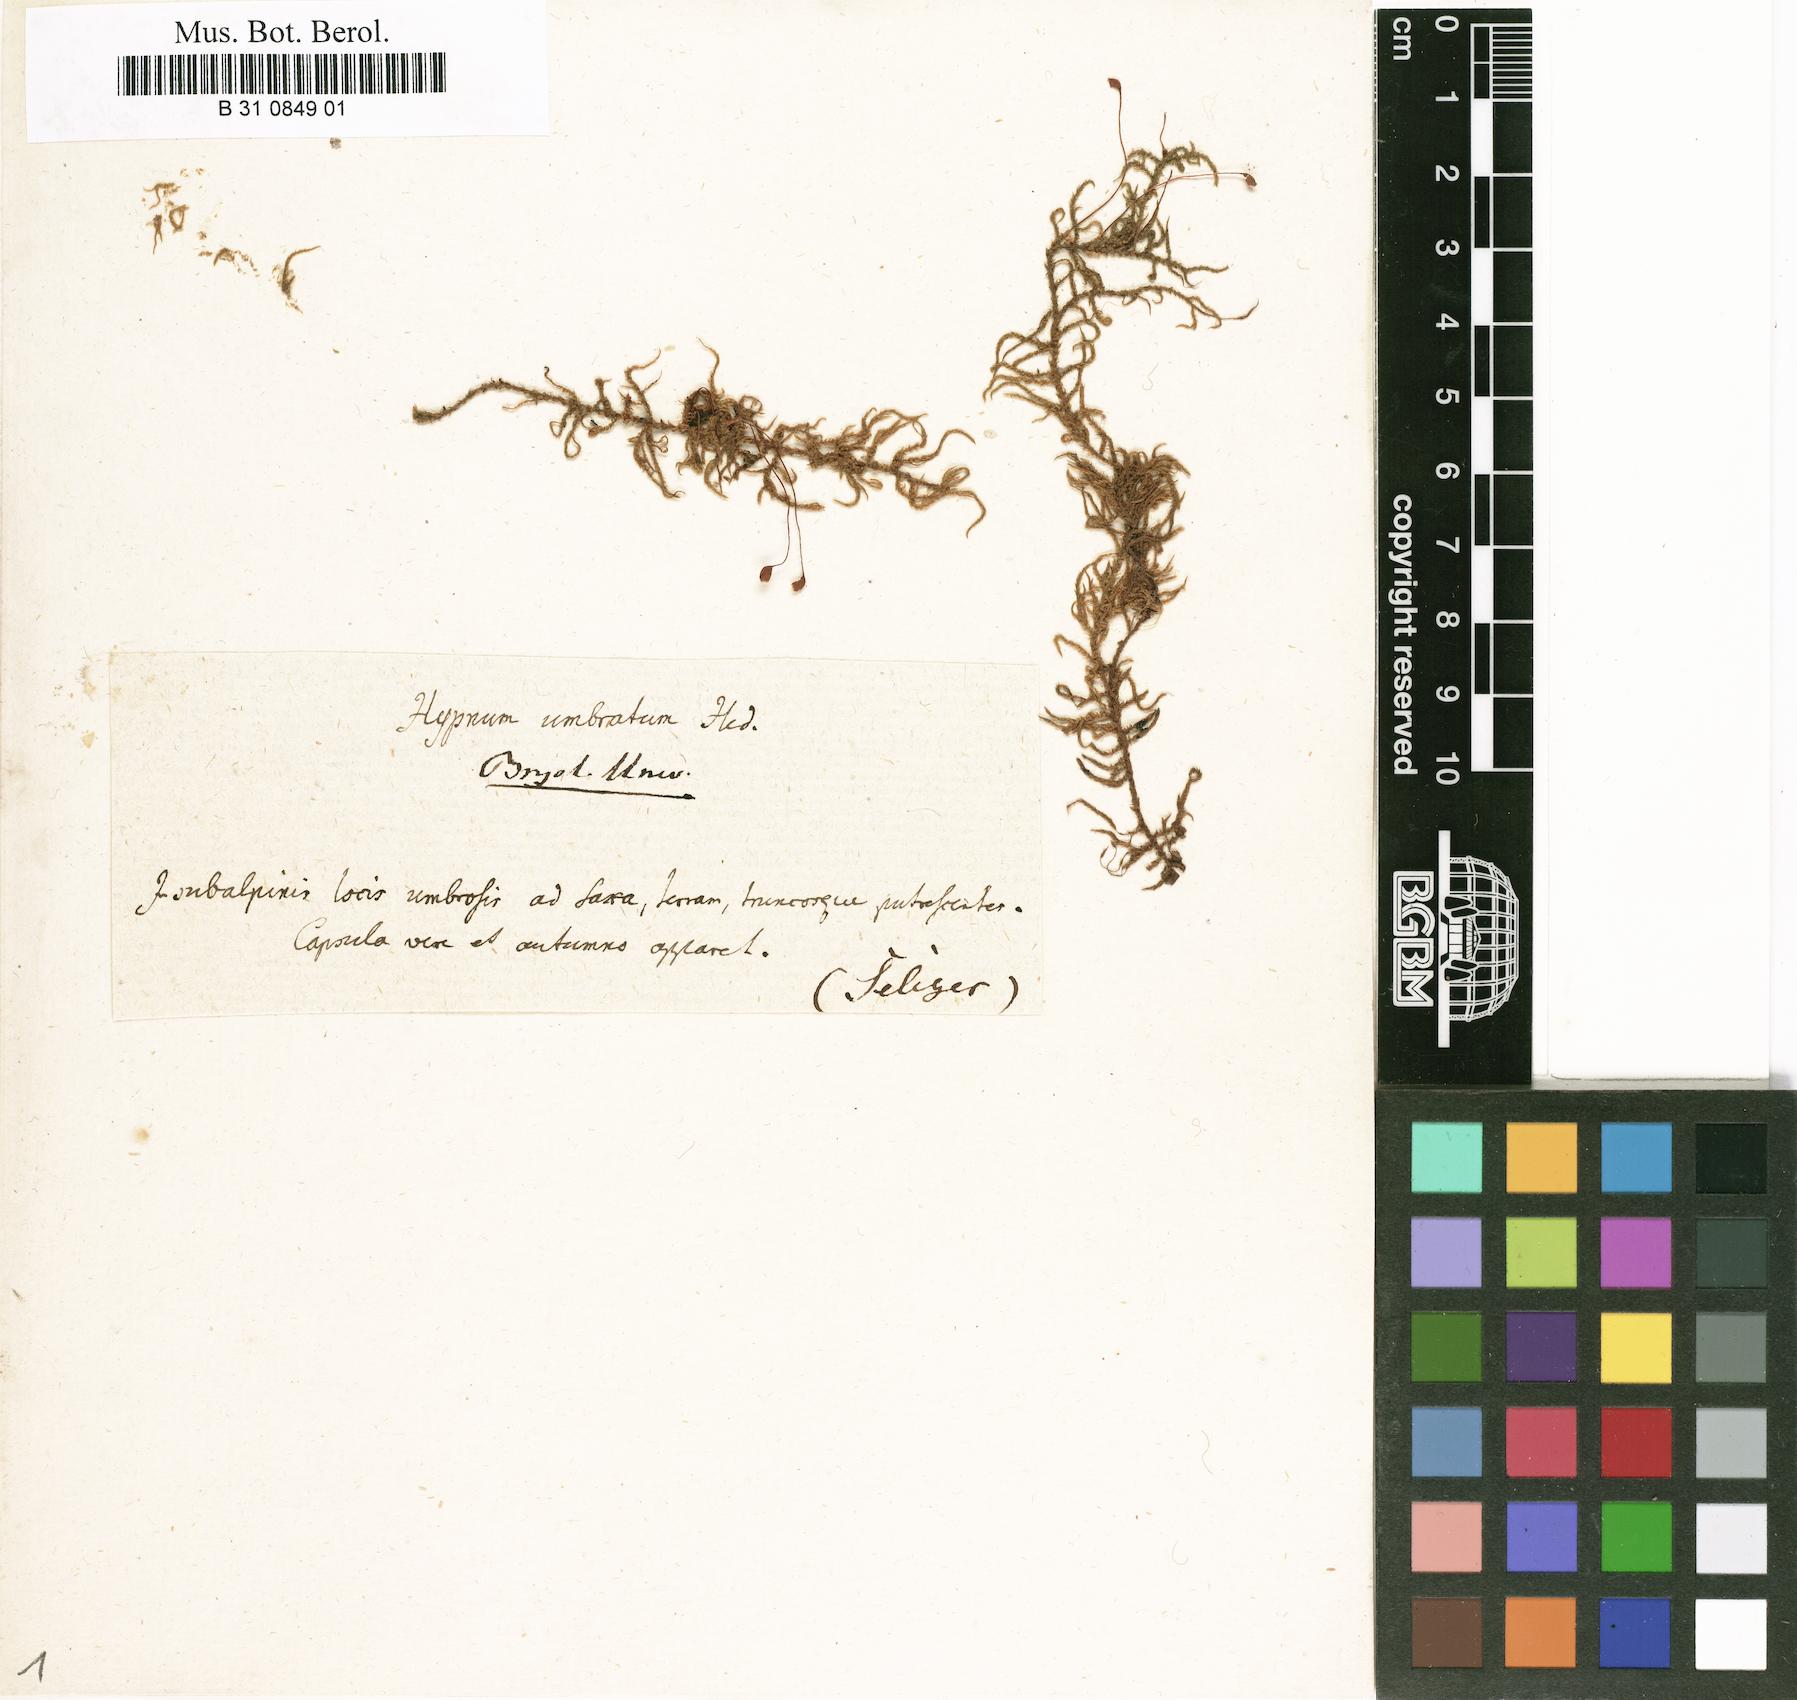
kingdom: Plantae
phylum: Bryophyta
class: Bryopsida
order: Hypnales
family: Hylocomiaceae
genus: Hylocomiastrum
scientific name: Hylocomiastrum umbratum
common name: Shaded woods moss
